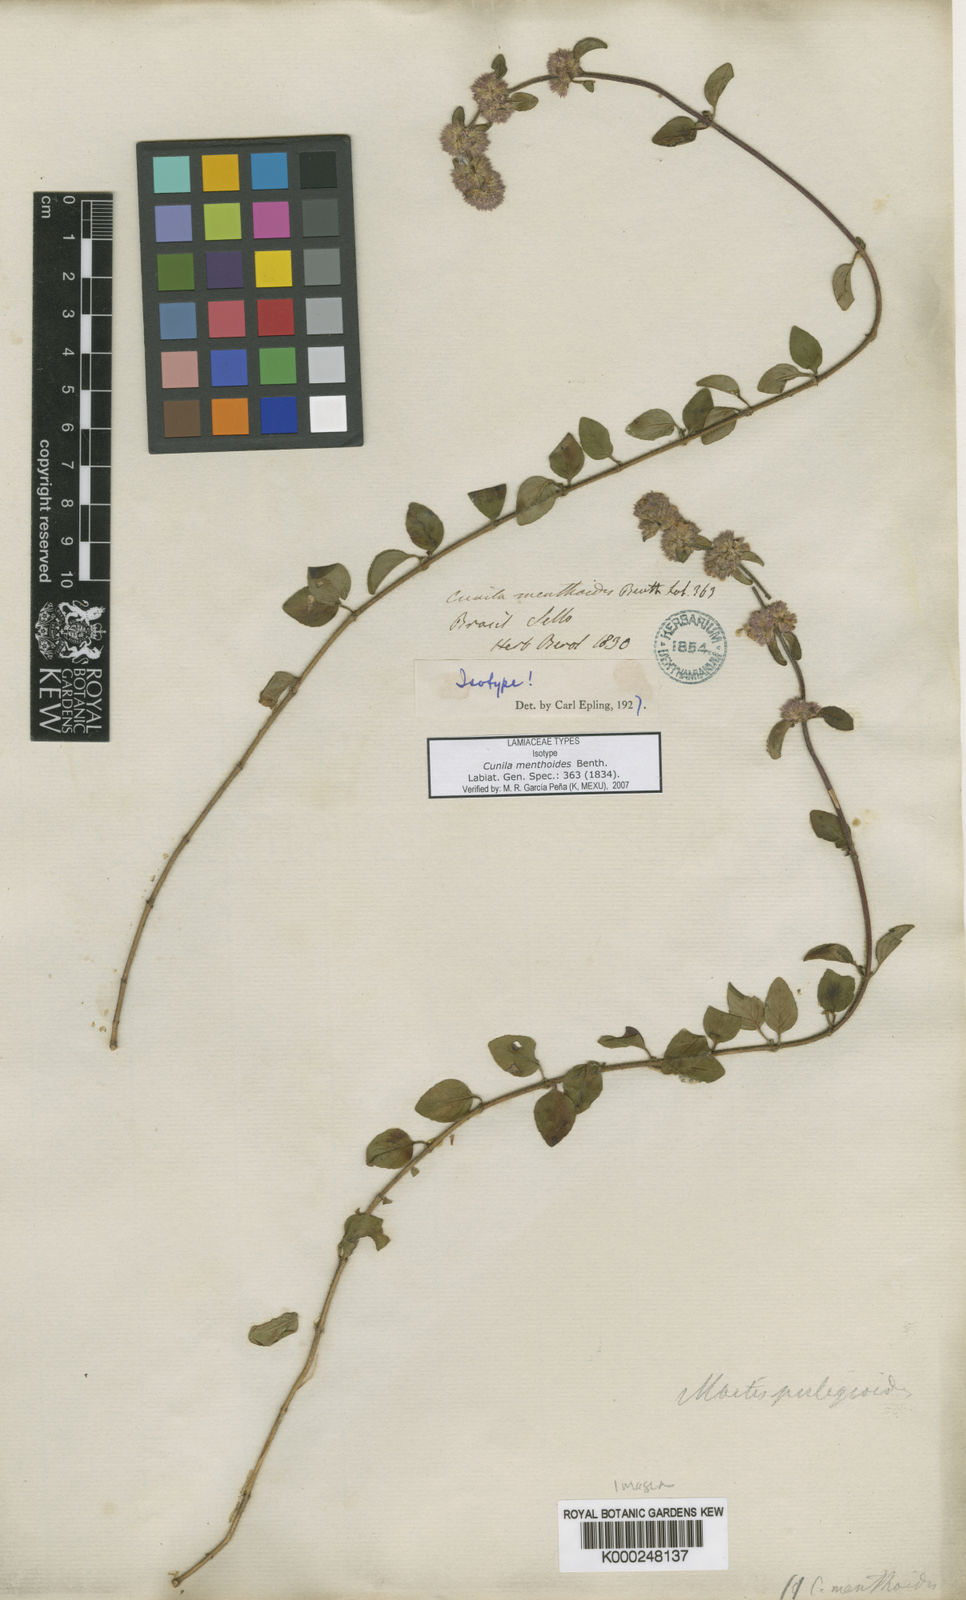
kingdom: Plantae
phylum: Tracheophyta
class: Magnoliopsida
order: Lamiales
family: Lamiaceae
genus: Cunila
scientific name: Cunila menthoides
